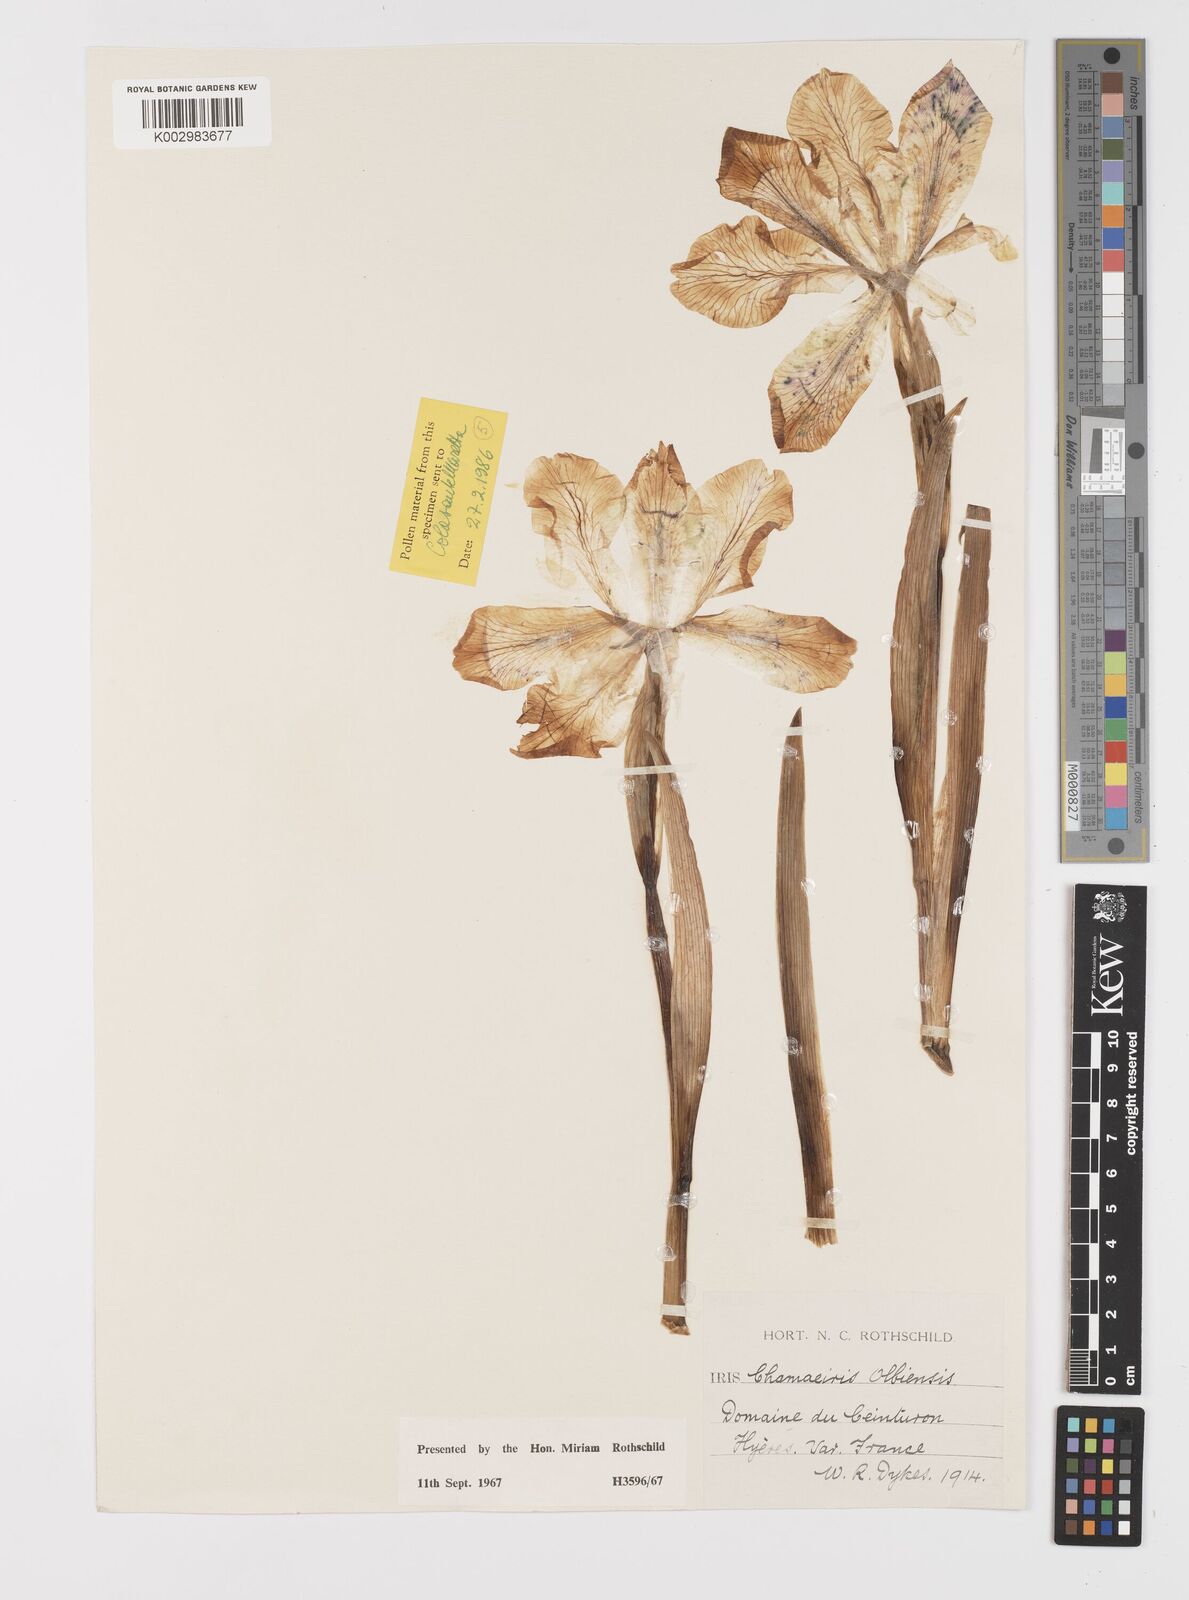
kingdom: Plantae
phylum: Tracheophyta
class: Liliopsida
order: Asparagales
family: Iridaceae
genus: Iris
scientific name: Iris lutescens
